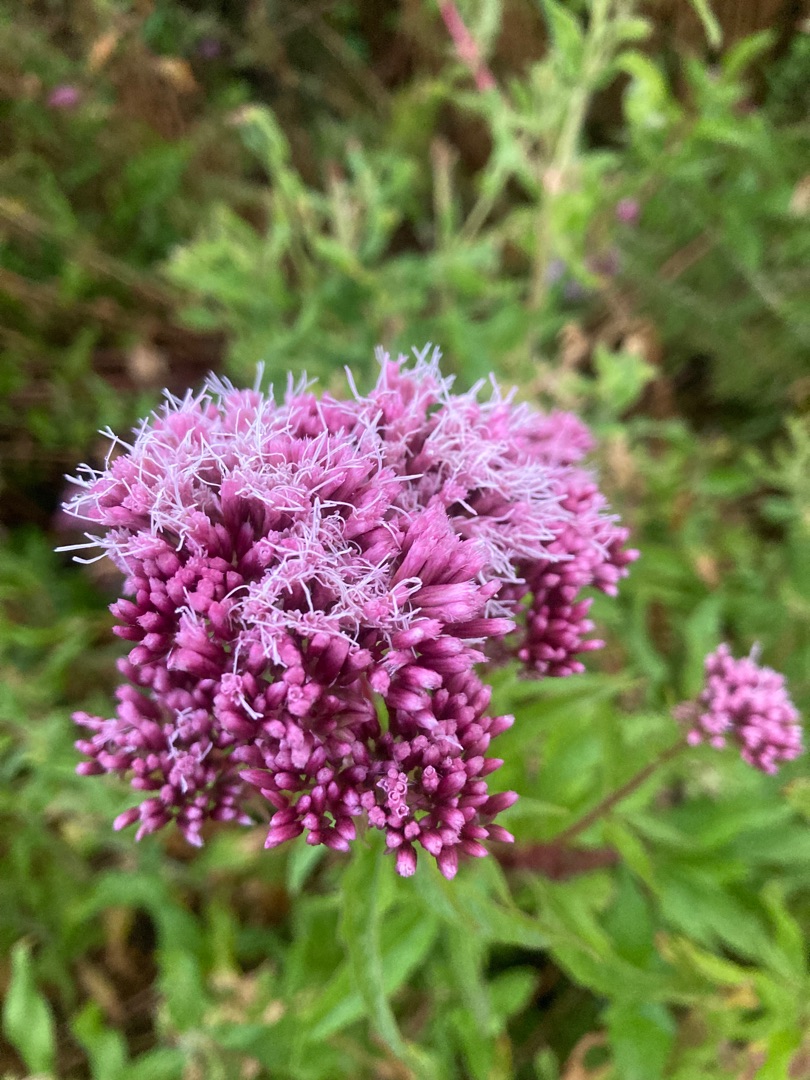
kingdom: Plantae
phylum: Tracheophyta
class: Magnoliopsida
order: Asterales
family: Asteraceae
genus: Eupatorium
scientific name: Eupatorium cannabinum
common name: Hjortetrøst
